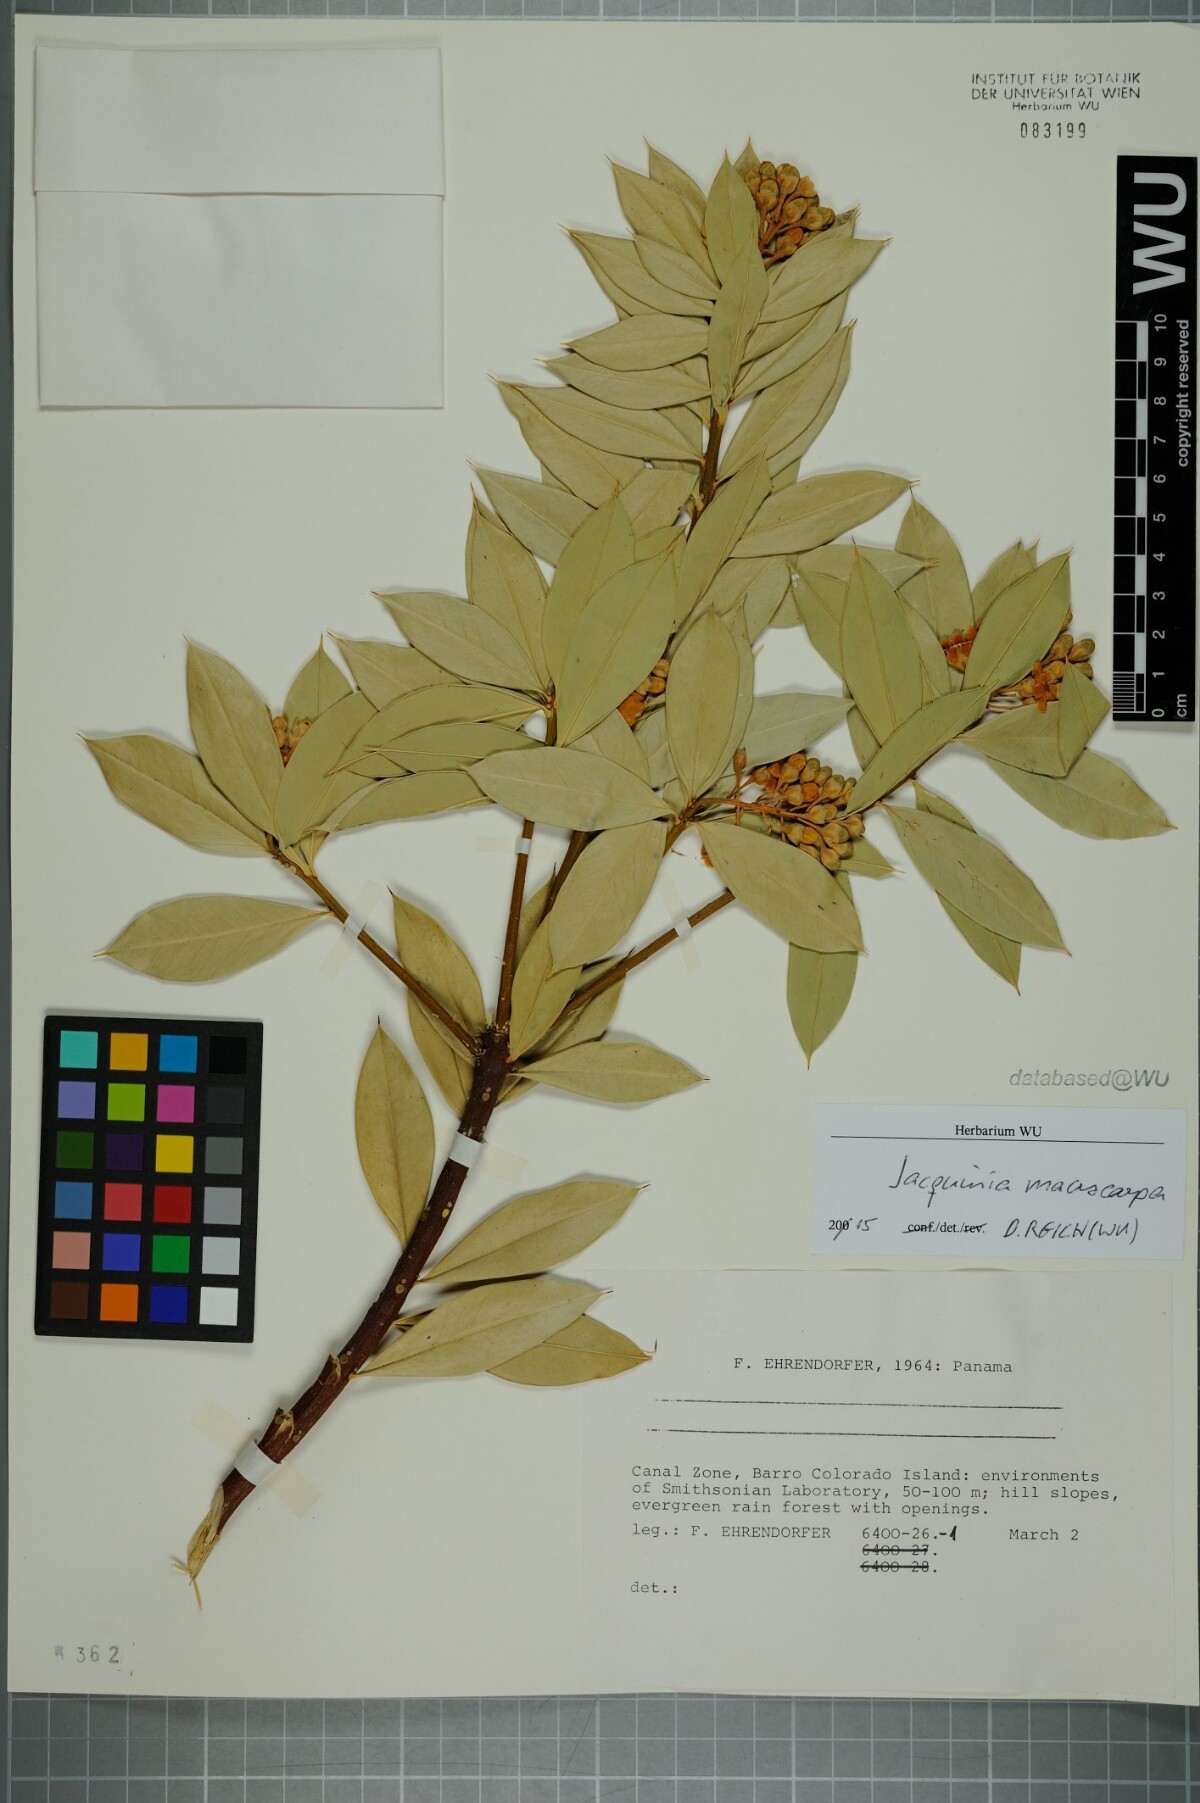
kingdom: Plantae
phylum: Tracheophyta
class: Magnoliopsida
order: Ericales
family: Primulaceae
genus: Bonellia
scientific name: Bonellia macrocarpa
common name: Primrose
